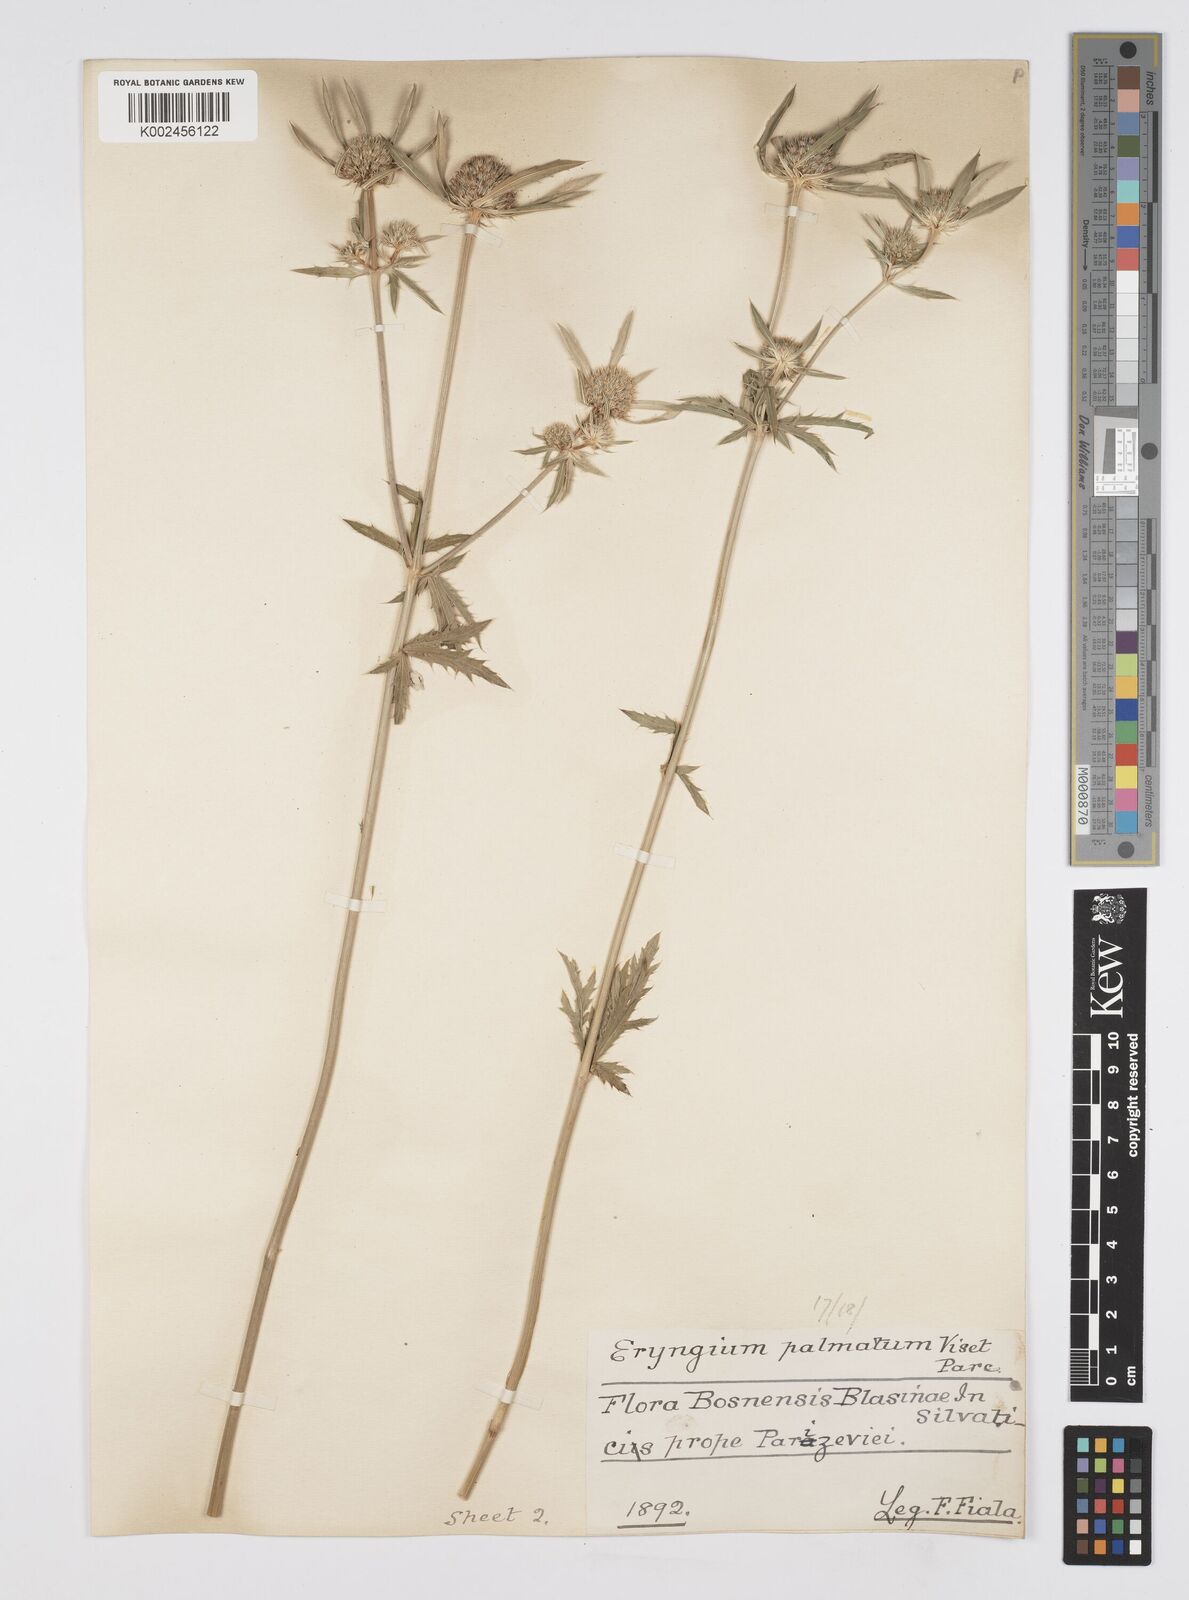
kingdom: Plantae
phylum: Tracheophyta
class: Magnoliopsida
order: Apiales
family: Apiaceae
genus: Eryngium
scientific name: Eryngium palmatum
